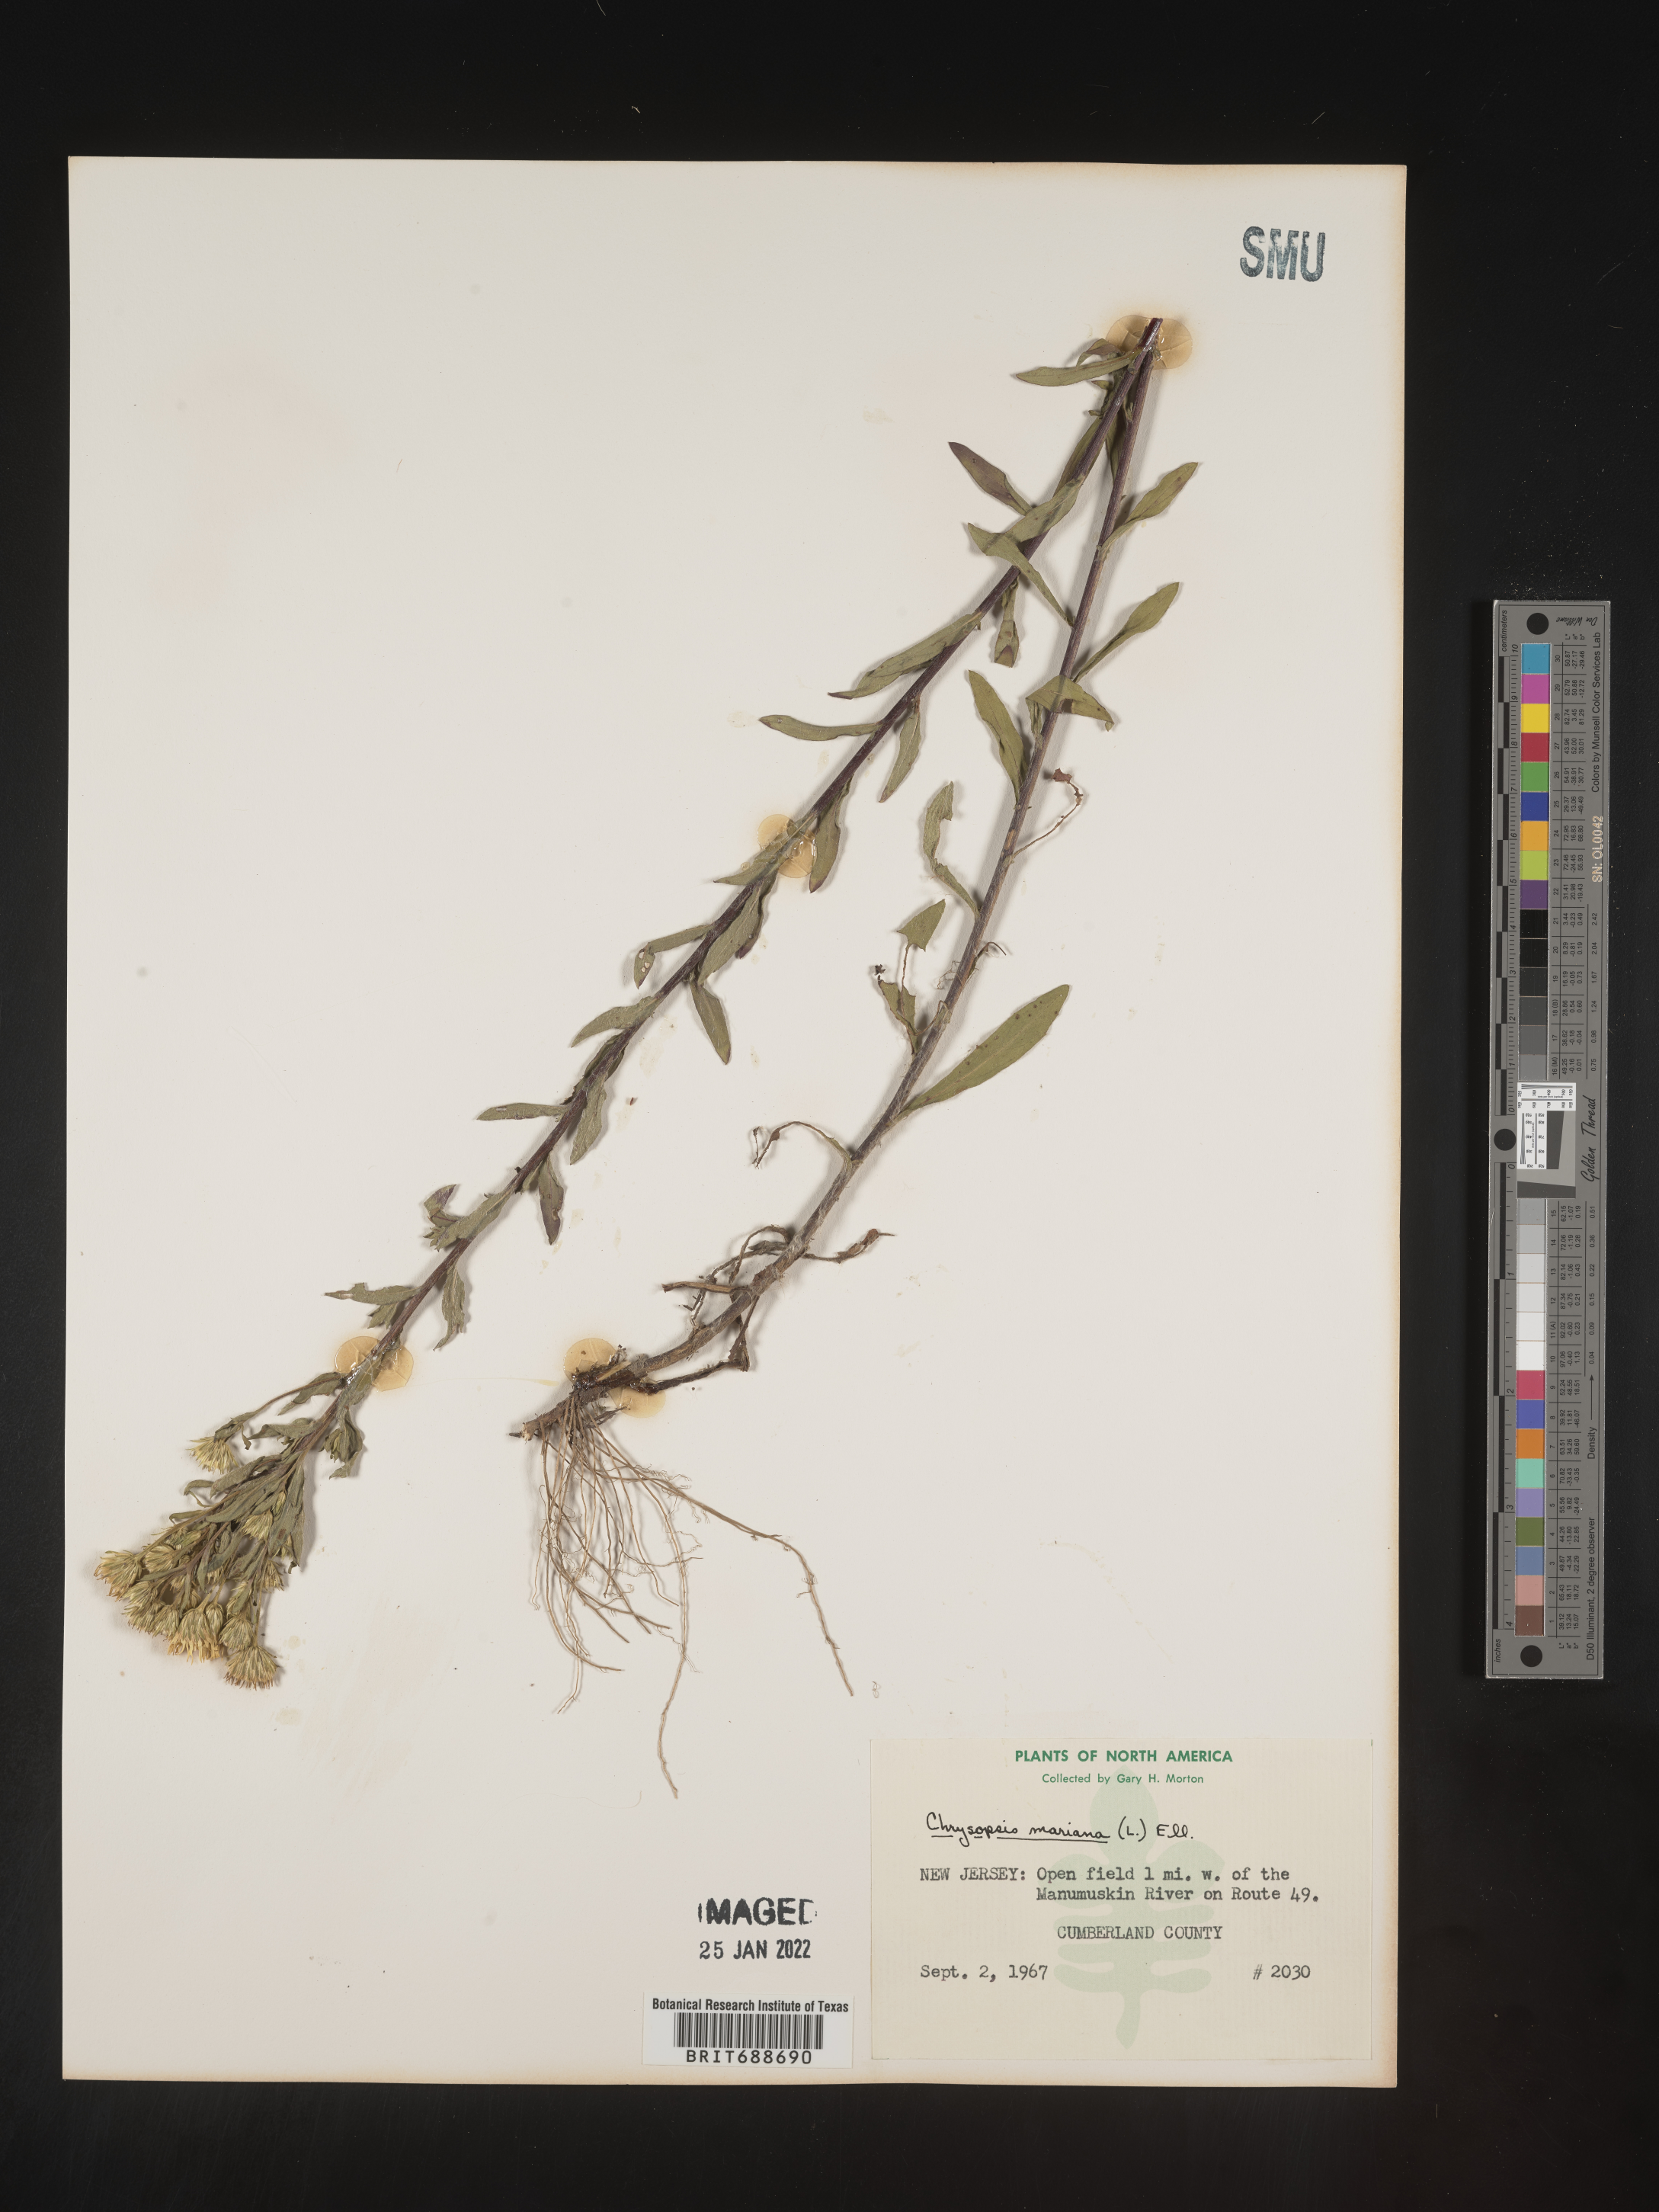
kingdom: Plantae
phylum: Tracheophyta
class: Magnoliopsida
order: Asterales
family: Asteraceae
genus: Chrysopsis
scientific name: Chrysopsis mariana
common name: Maryland golden-aster
